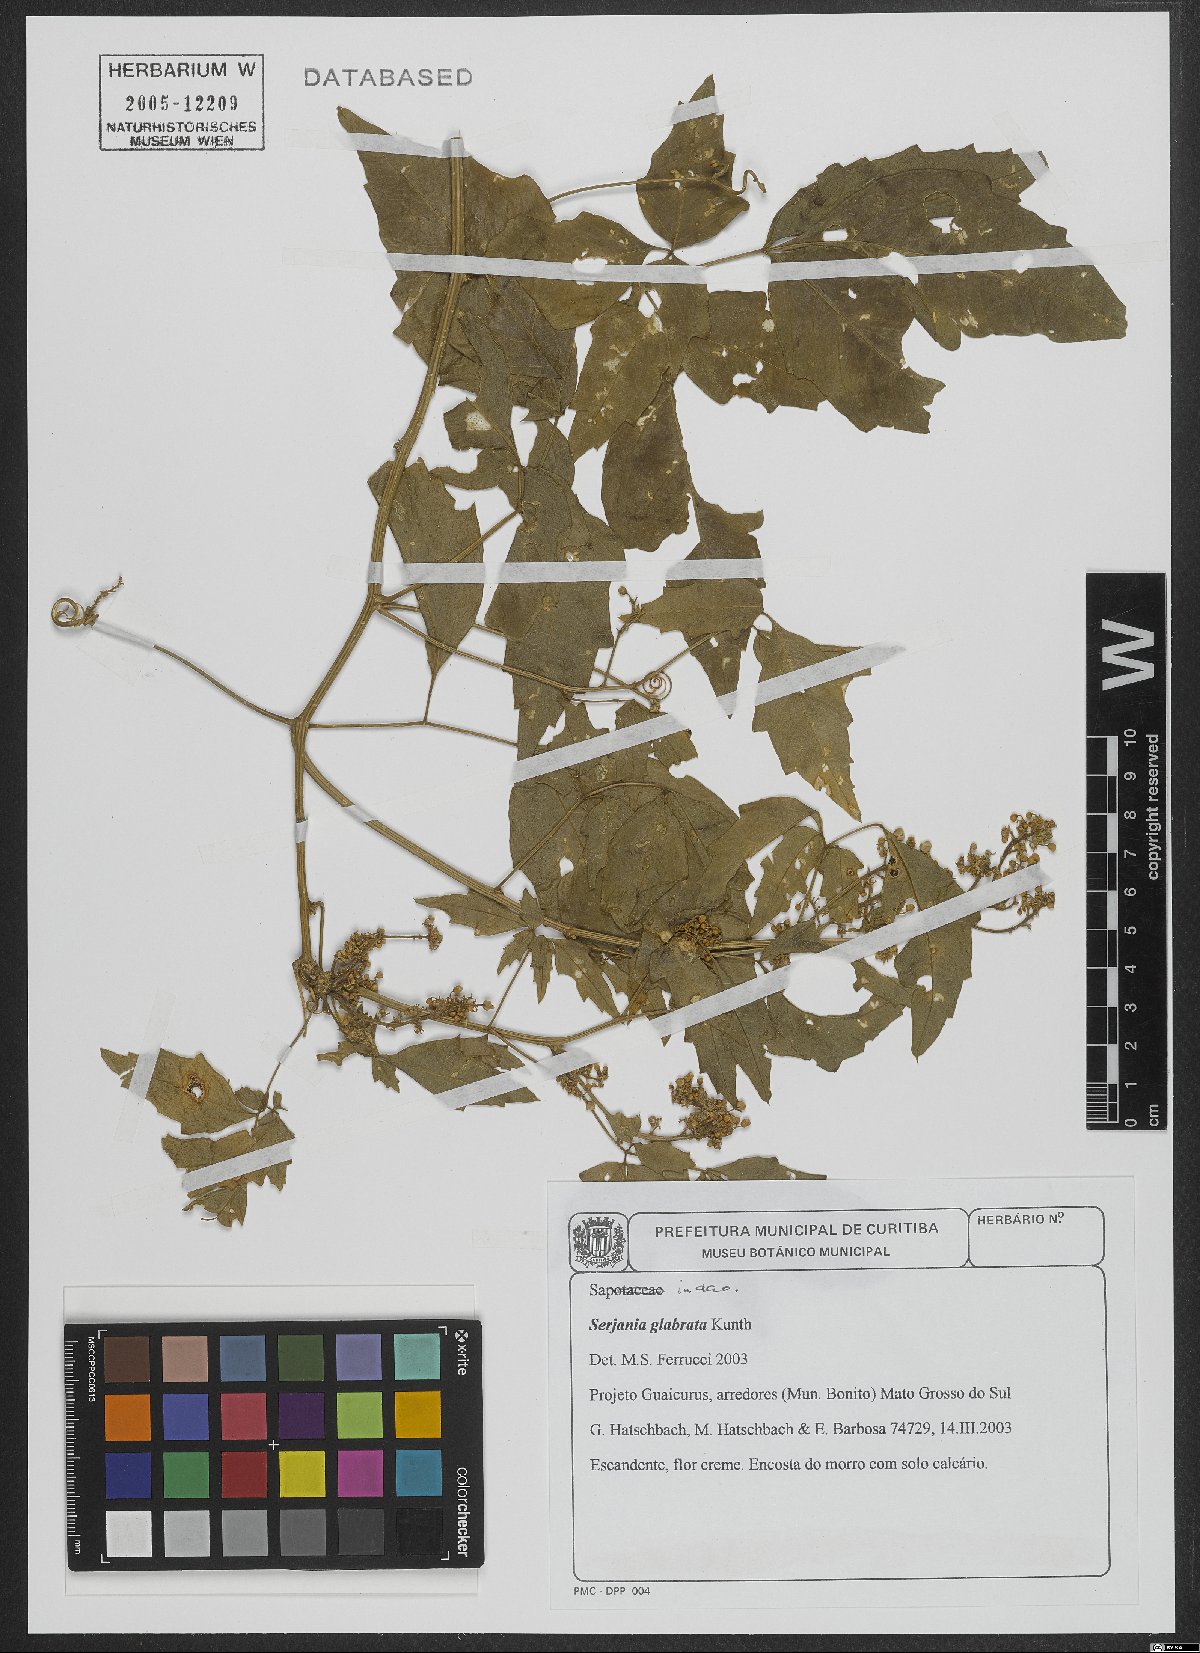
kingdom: Plantae
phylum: Tracheophyta
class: Magnoliopsida
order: Sapindales
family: Sapindaceae
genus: Serjania
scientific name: Serjania glabrata
